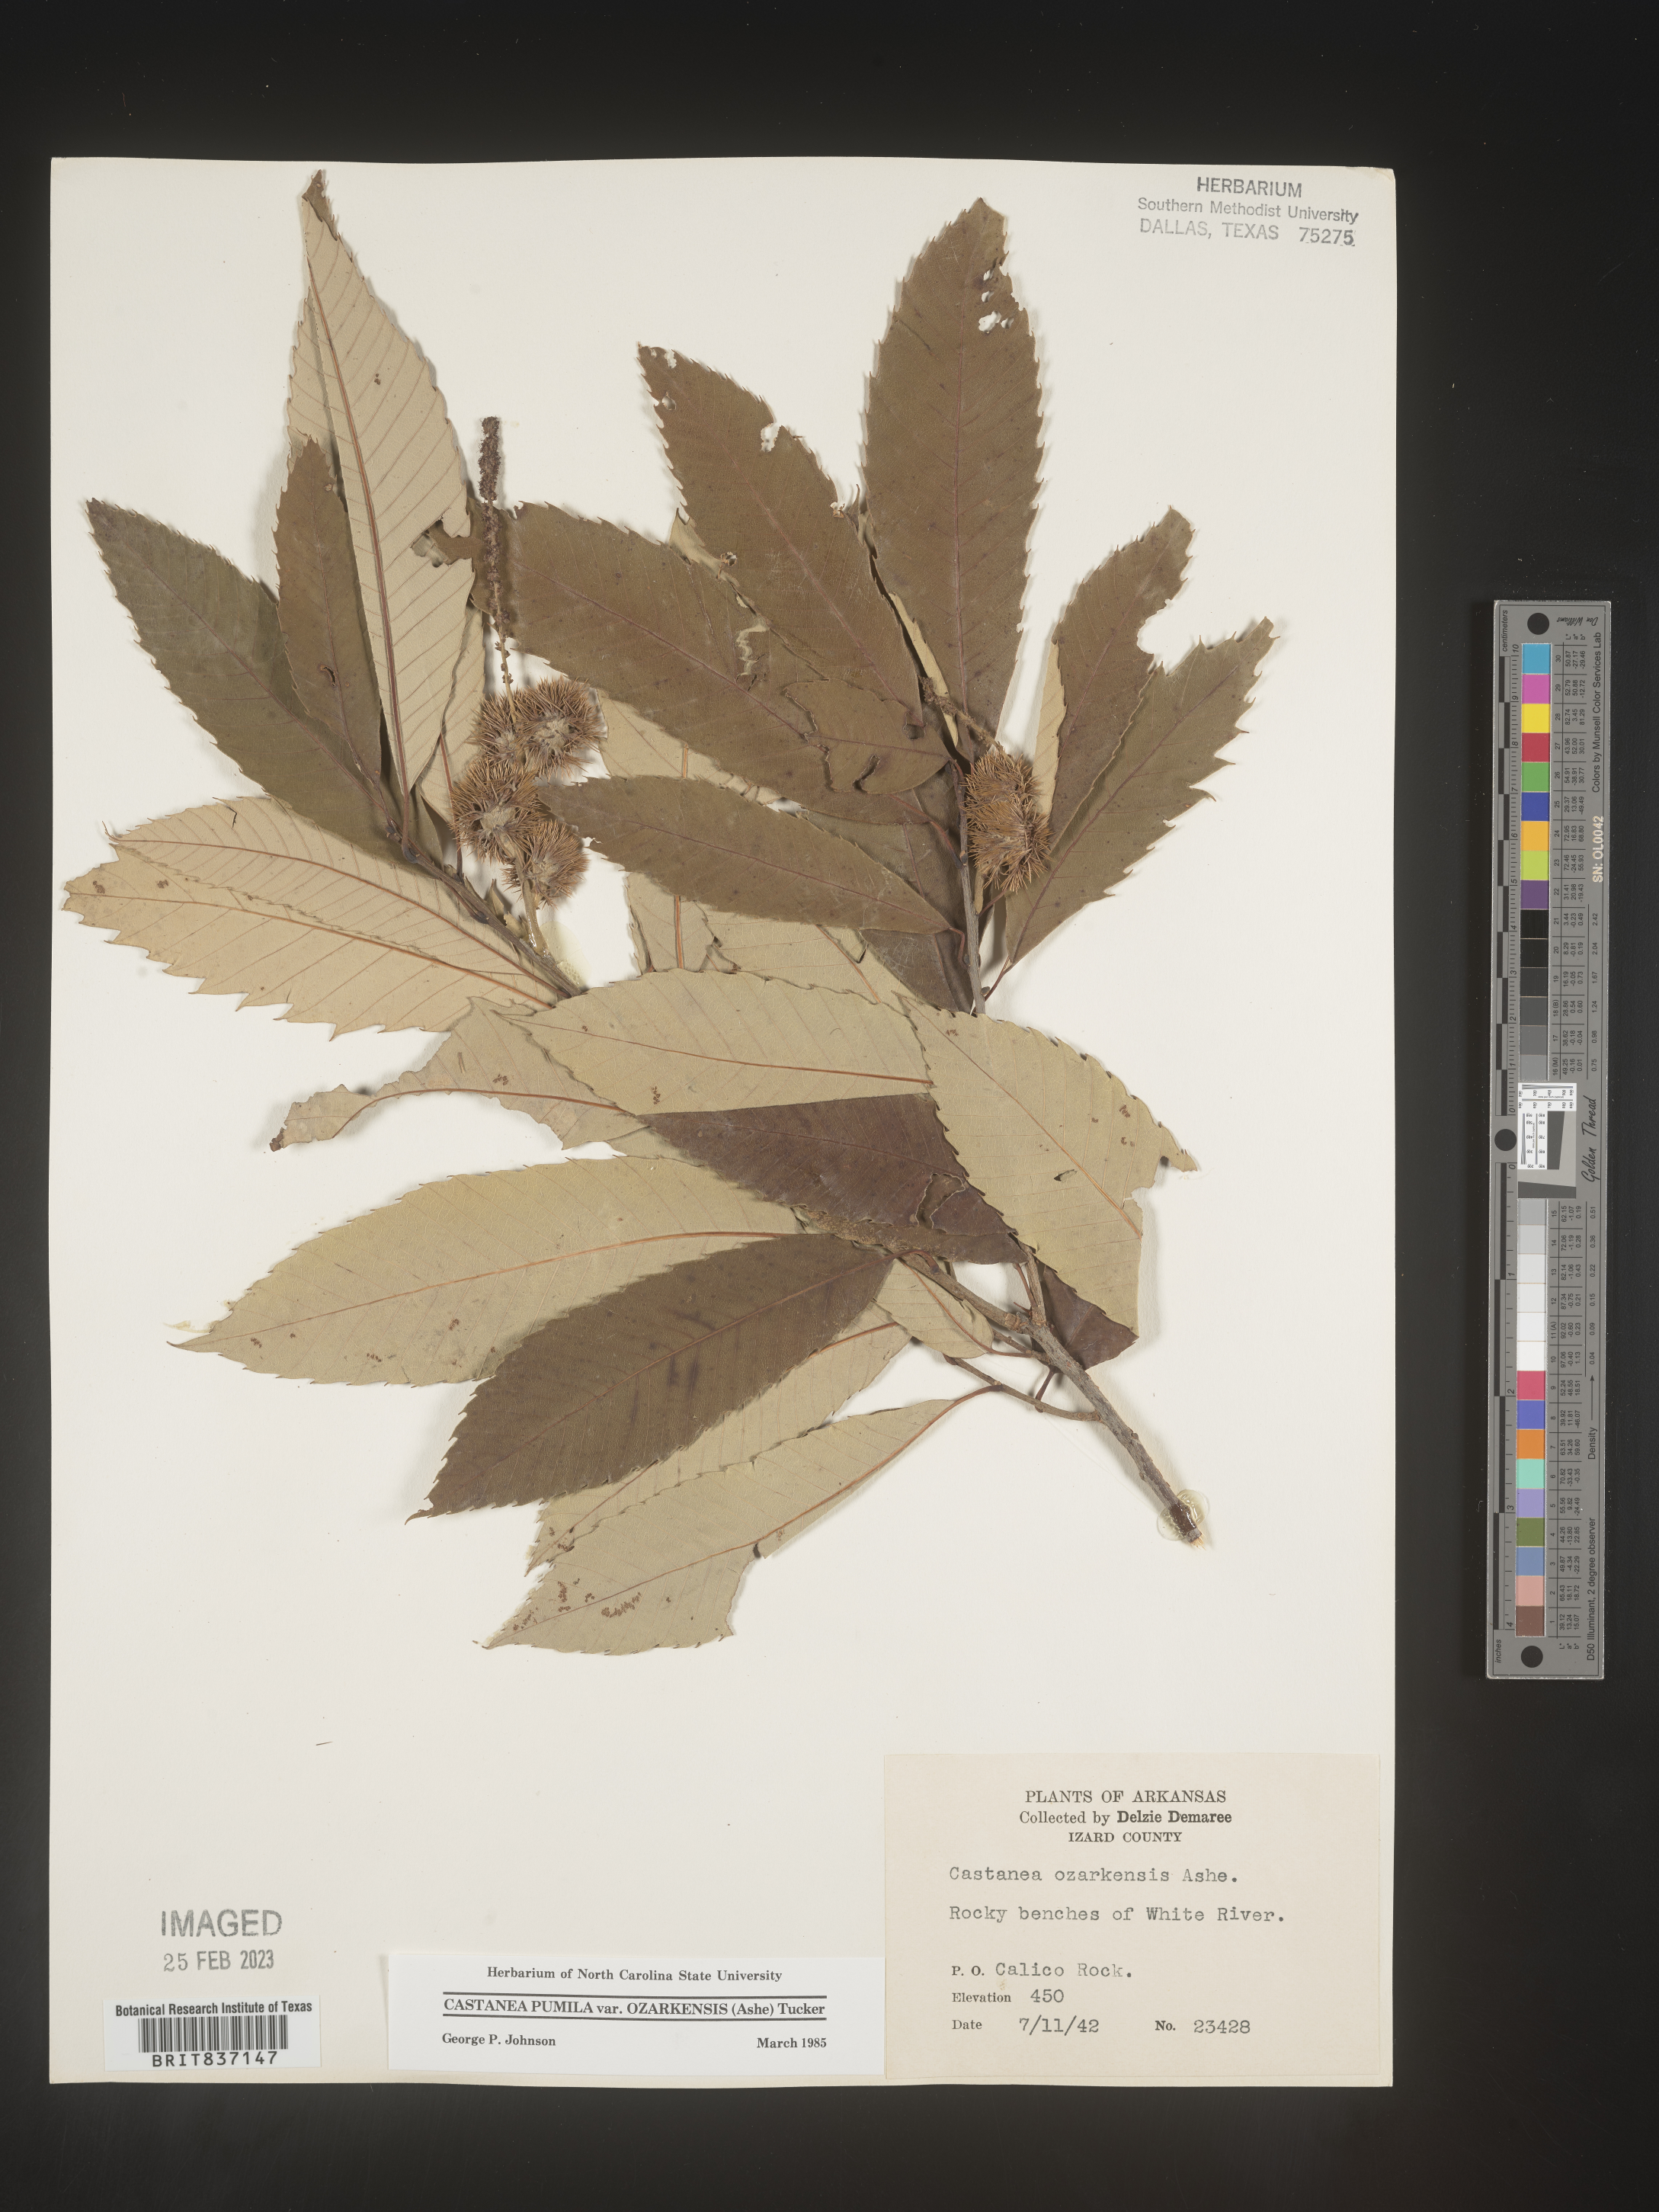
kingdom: Plantae
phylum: Tracheophyta
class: Magnoliopsida
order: Fagales
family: Fagaceae
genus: Castanea
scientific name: Castanea pumila
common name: Chinkapin
